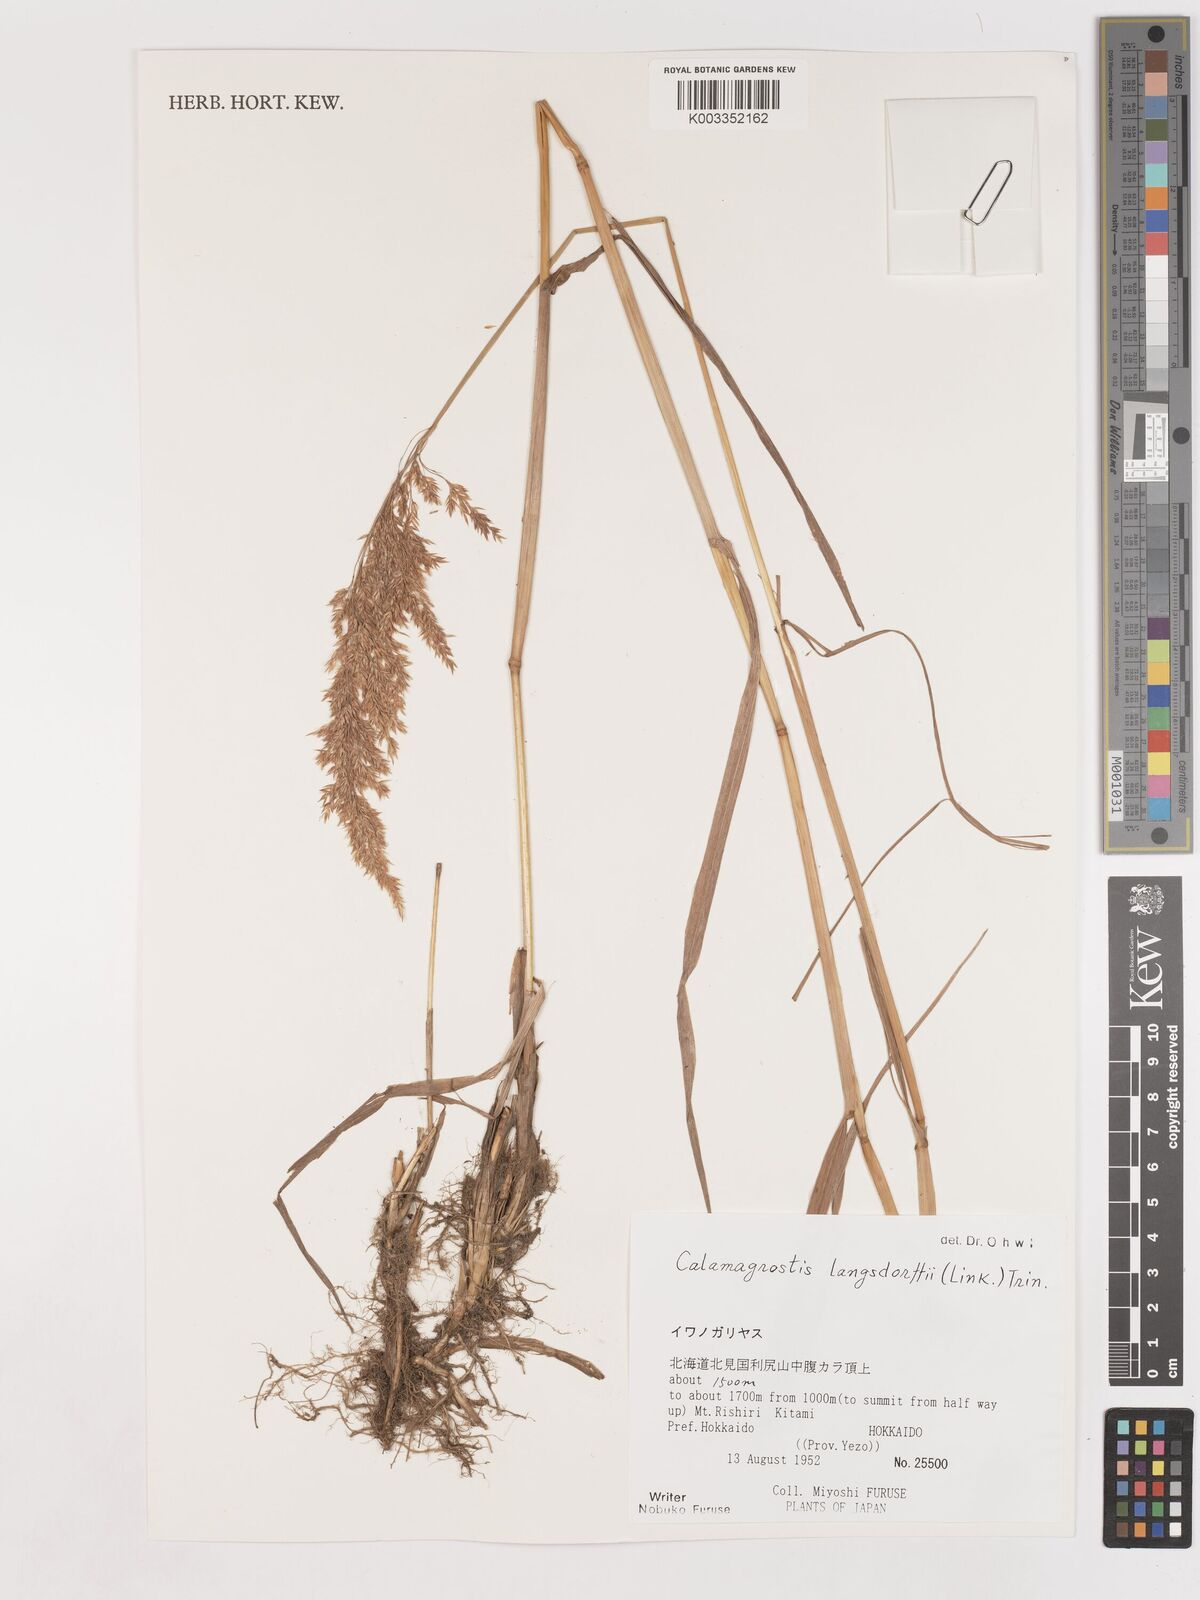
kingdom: Plantae
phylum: Tracheophyta
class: Liliopsida
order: Poales
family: Poaceae
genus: Calamagrostis
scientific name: Calamagrostis purpurea
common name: Scandinavian small-reed
